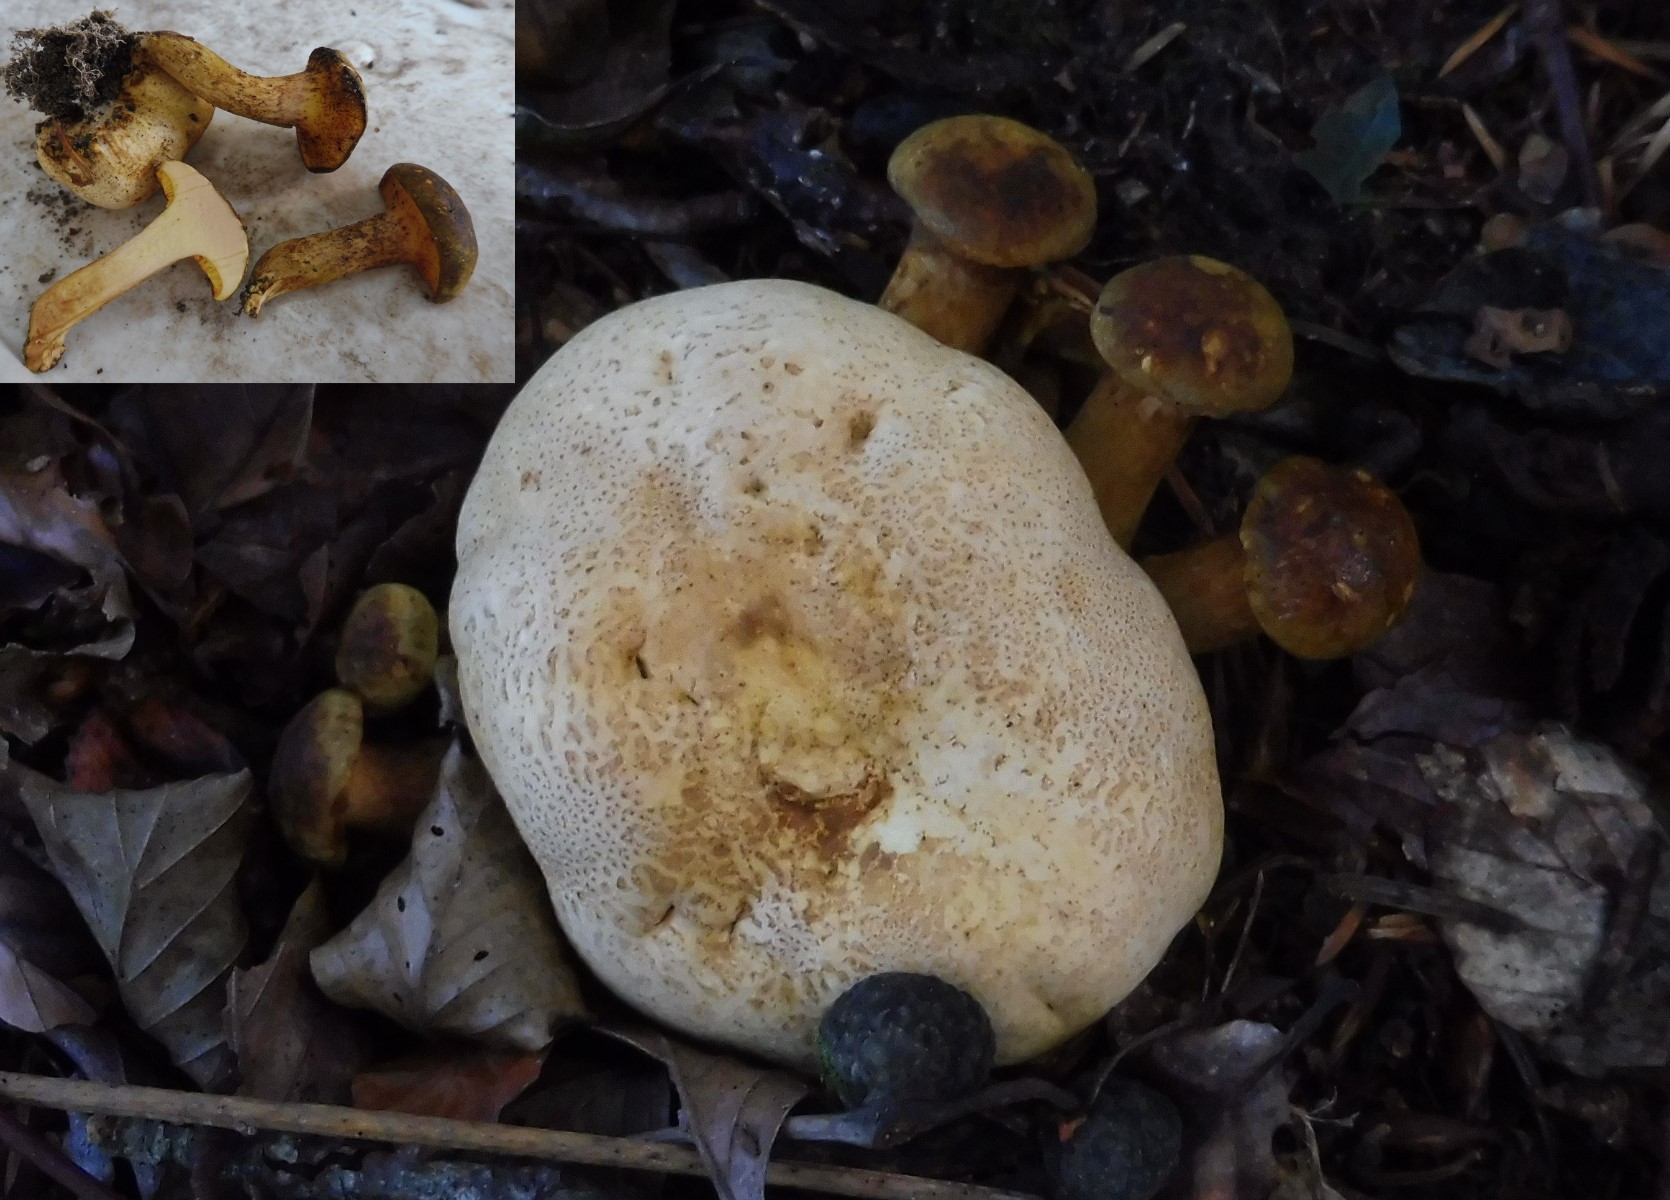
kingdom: Fungi
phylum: Basidiomycota
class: Agaricomycetes
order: Boletales
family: Boletaceae
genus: Pseudoboletus
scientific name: Pseudoboletus parasiticus
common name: snyltende rørhat
